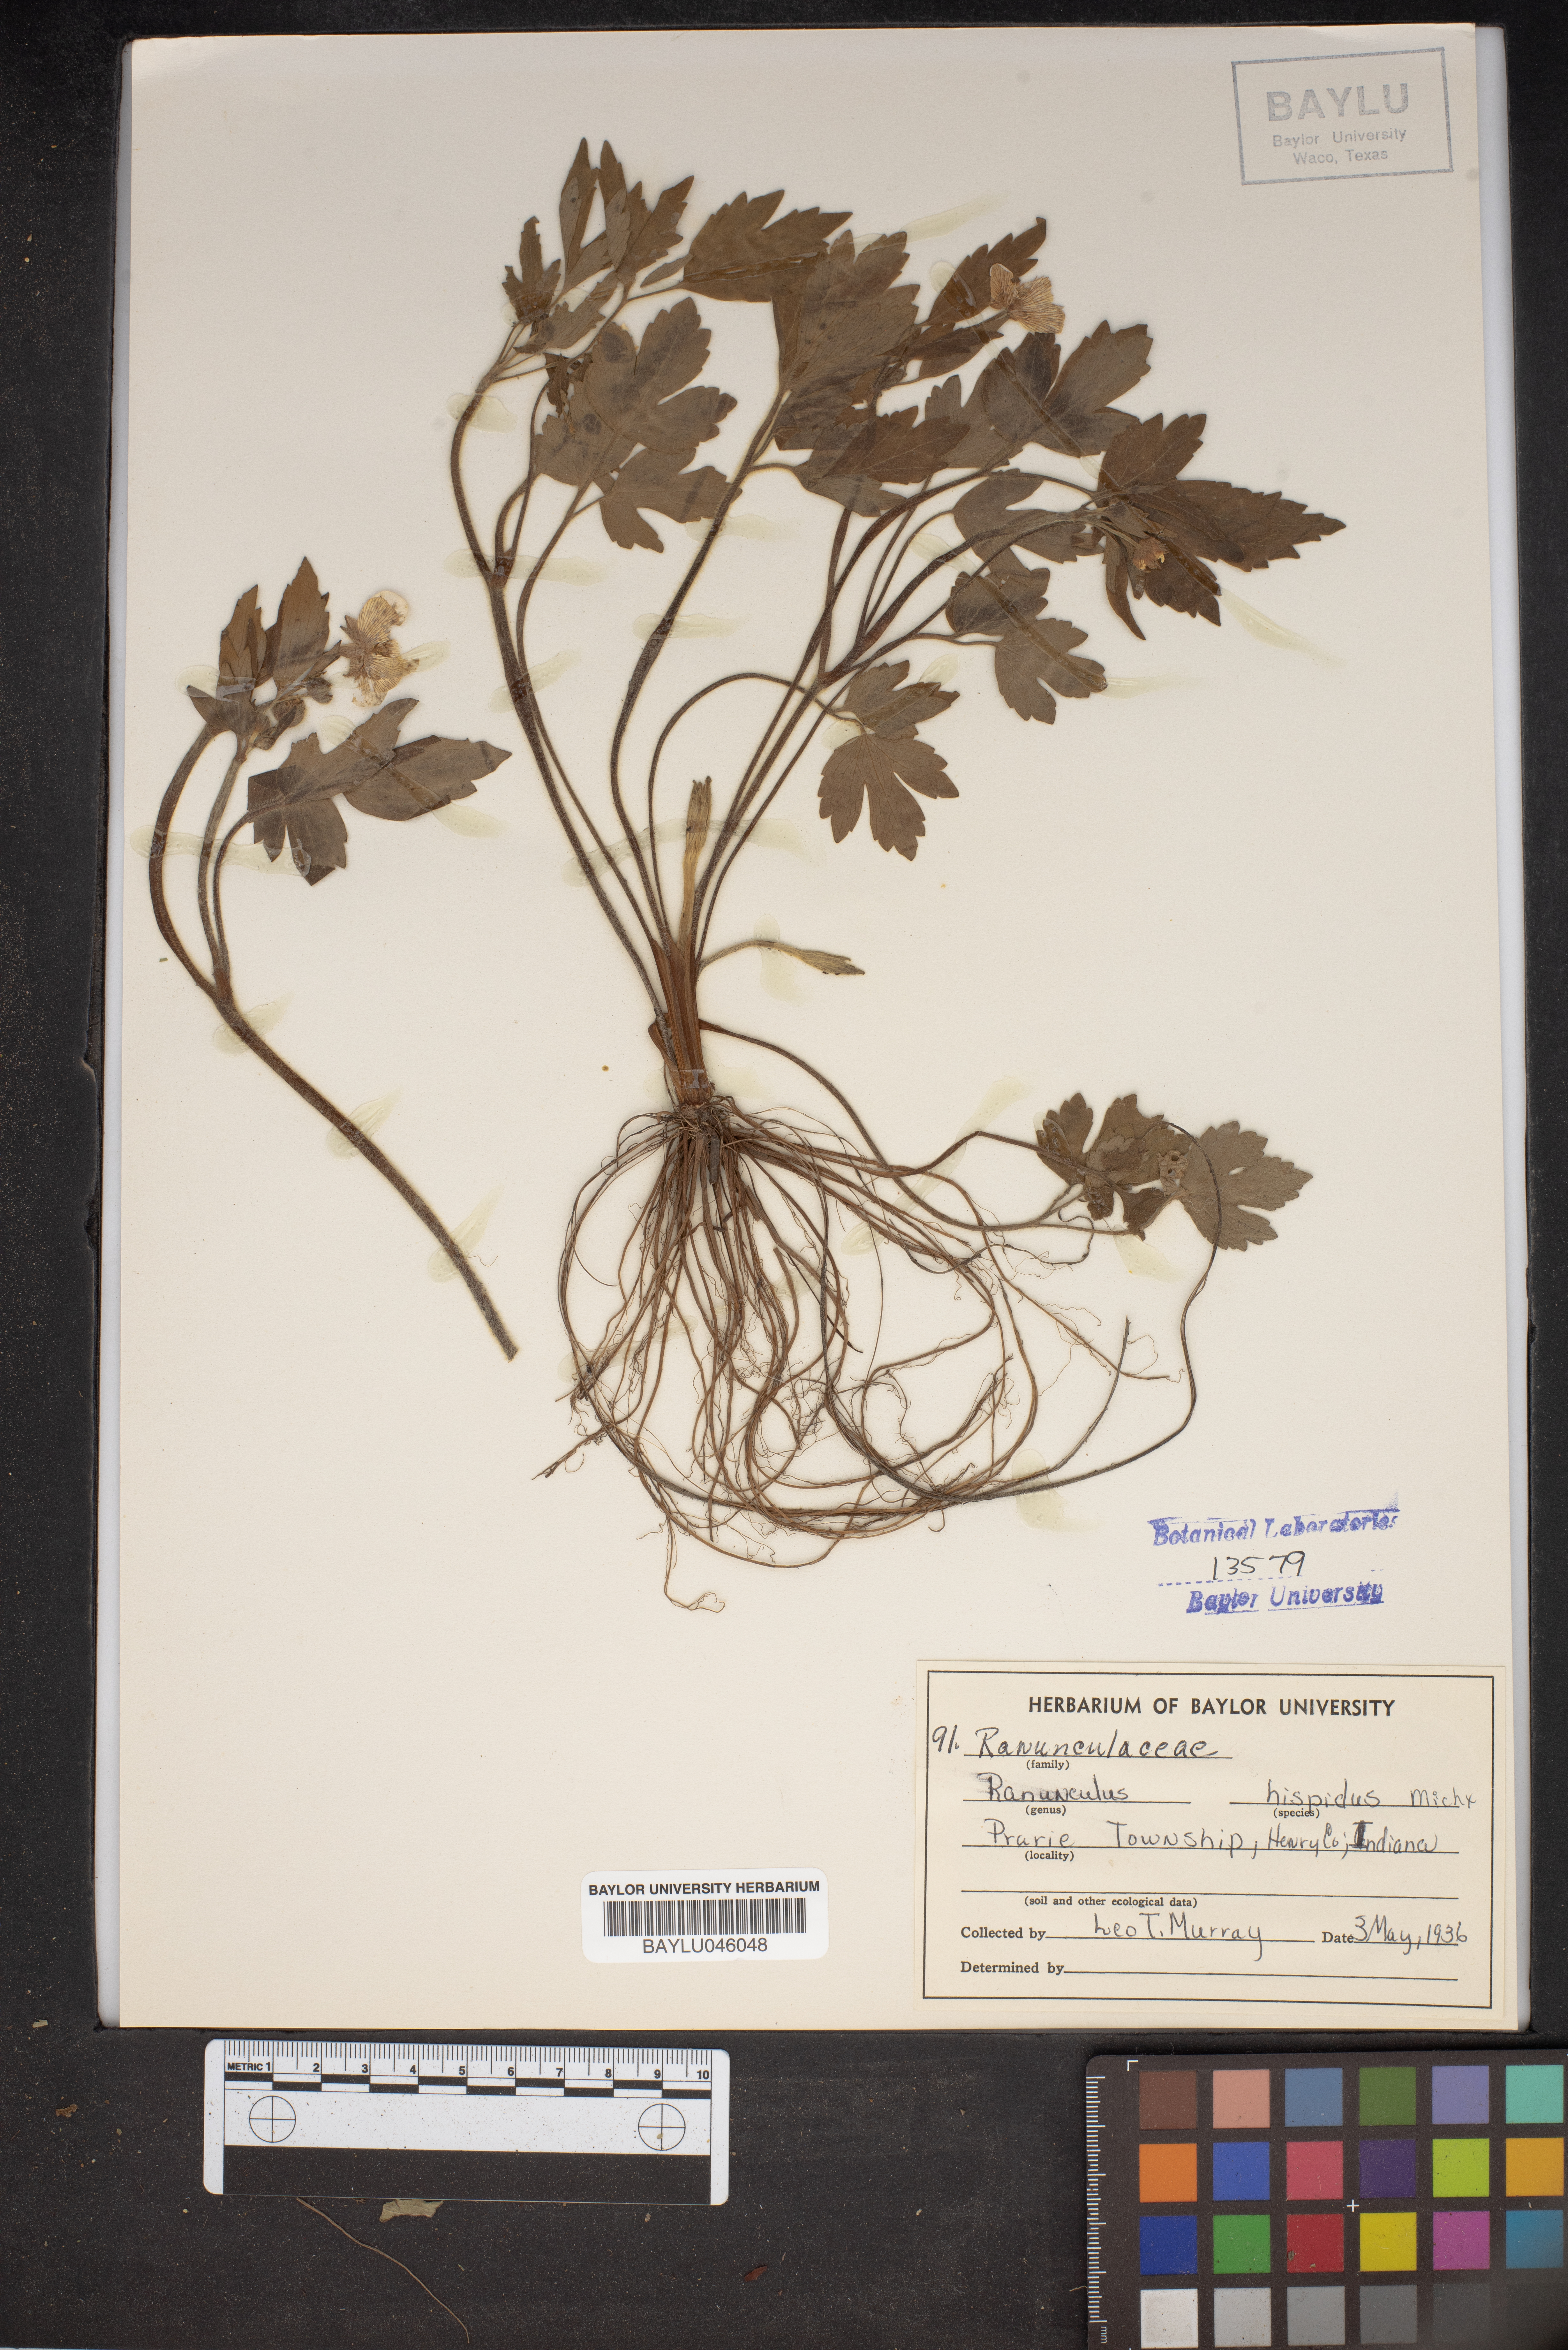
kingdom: Plantae
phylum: Tracheophyta
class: Magnoliopsida
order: Ranunculales
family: Ranunculaceae
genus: Ranunculus
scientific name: Ranunculus hispidus
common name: Bristly buttercup
